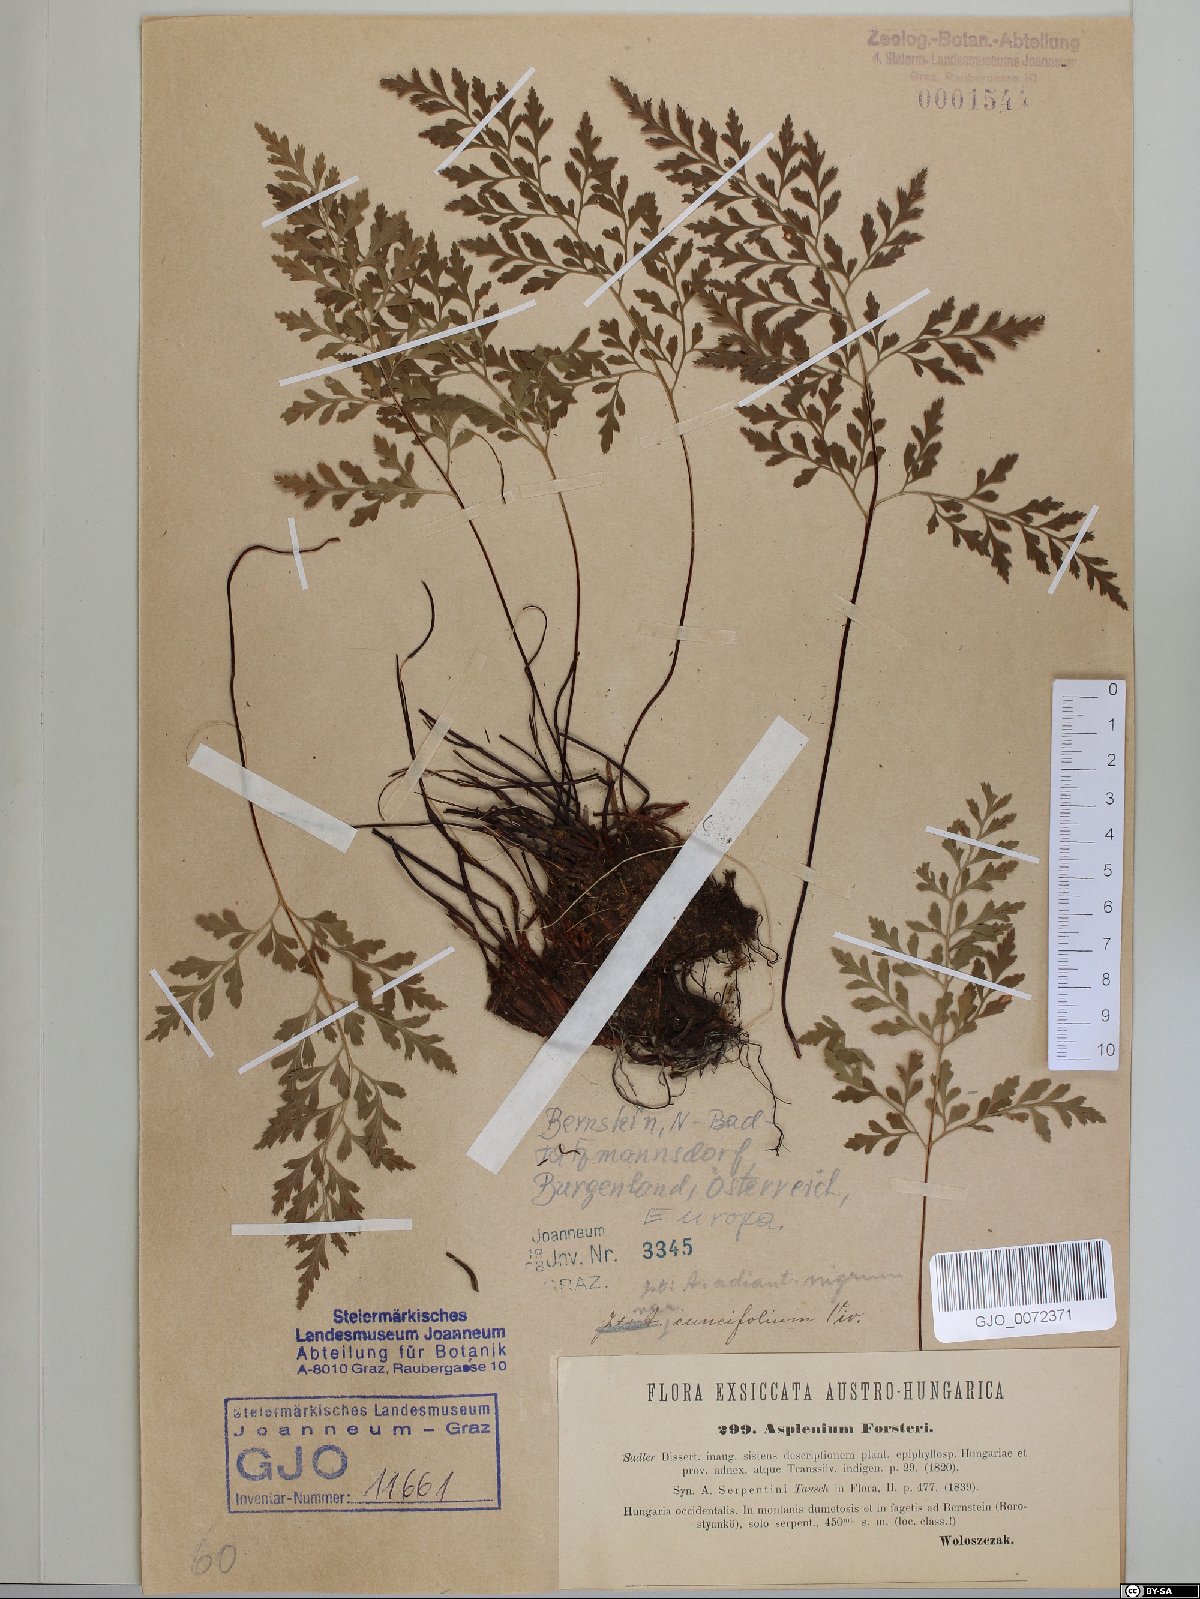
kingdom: Plantae
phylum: Tracheophyta
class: Polypodiopsida
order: Polypodiales
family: Aspleniaceae
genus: Asplenium
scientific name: Asplenium cuneifolium
